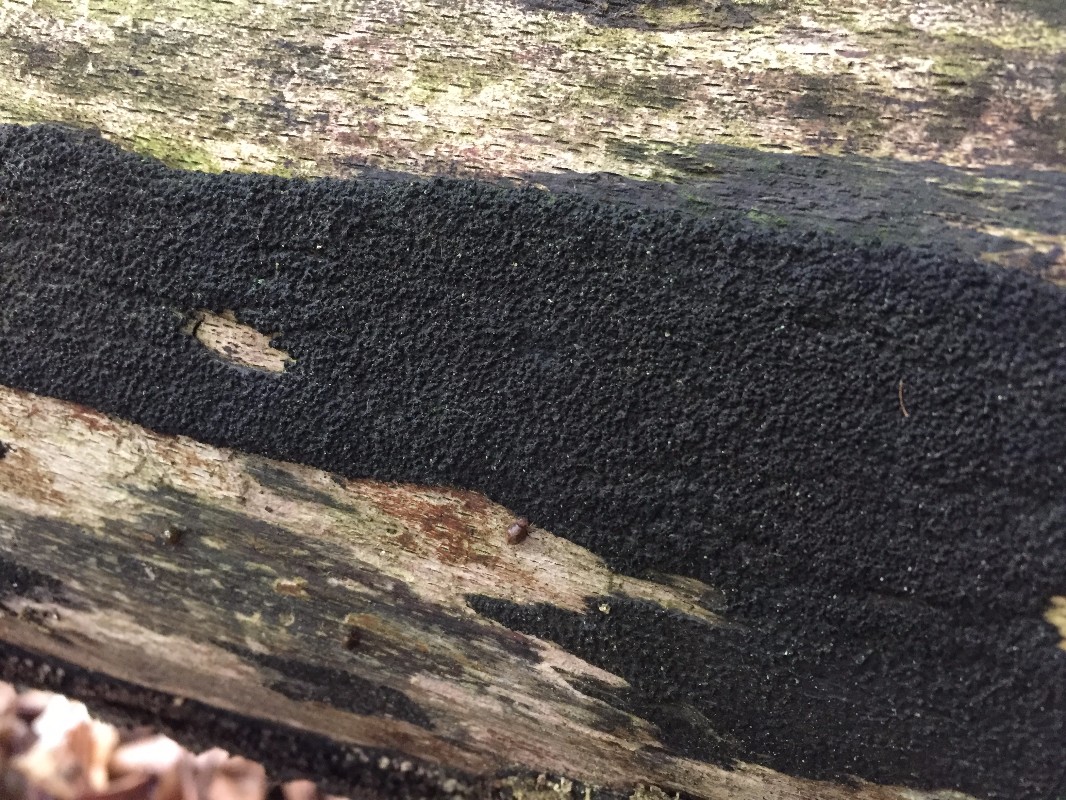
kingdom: Fungi
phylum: Ascomycota
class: Sordariomycetes
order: Xylariales
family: Diatrypaceae
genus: Eutypa
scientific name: Eutypa spinosa
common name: grov kulskorpe
